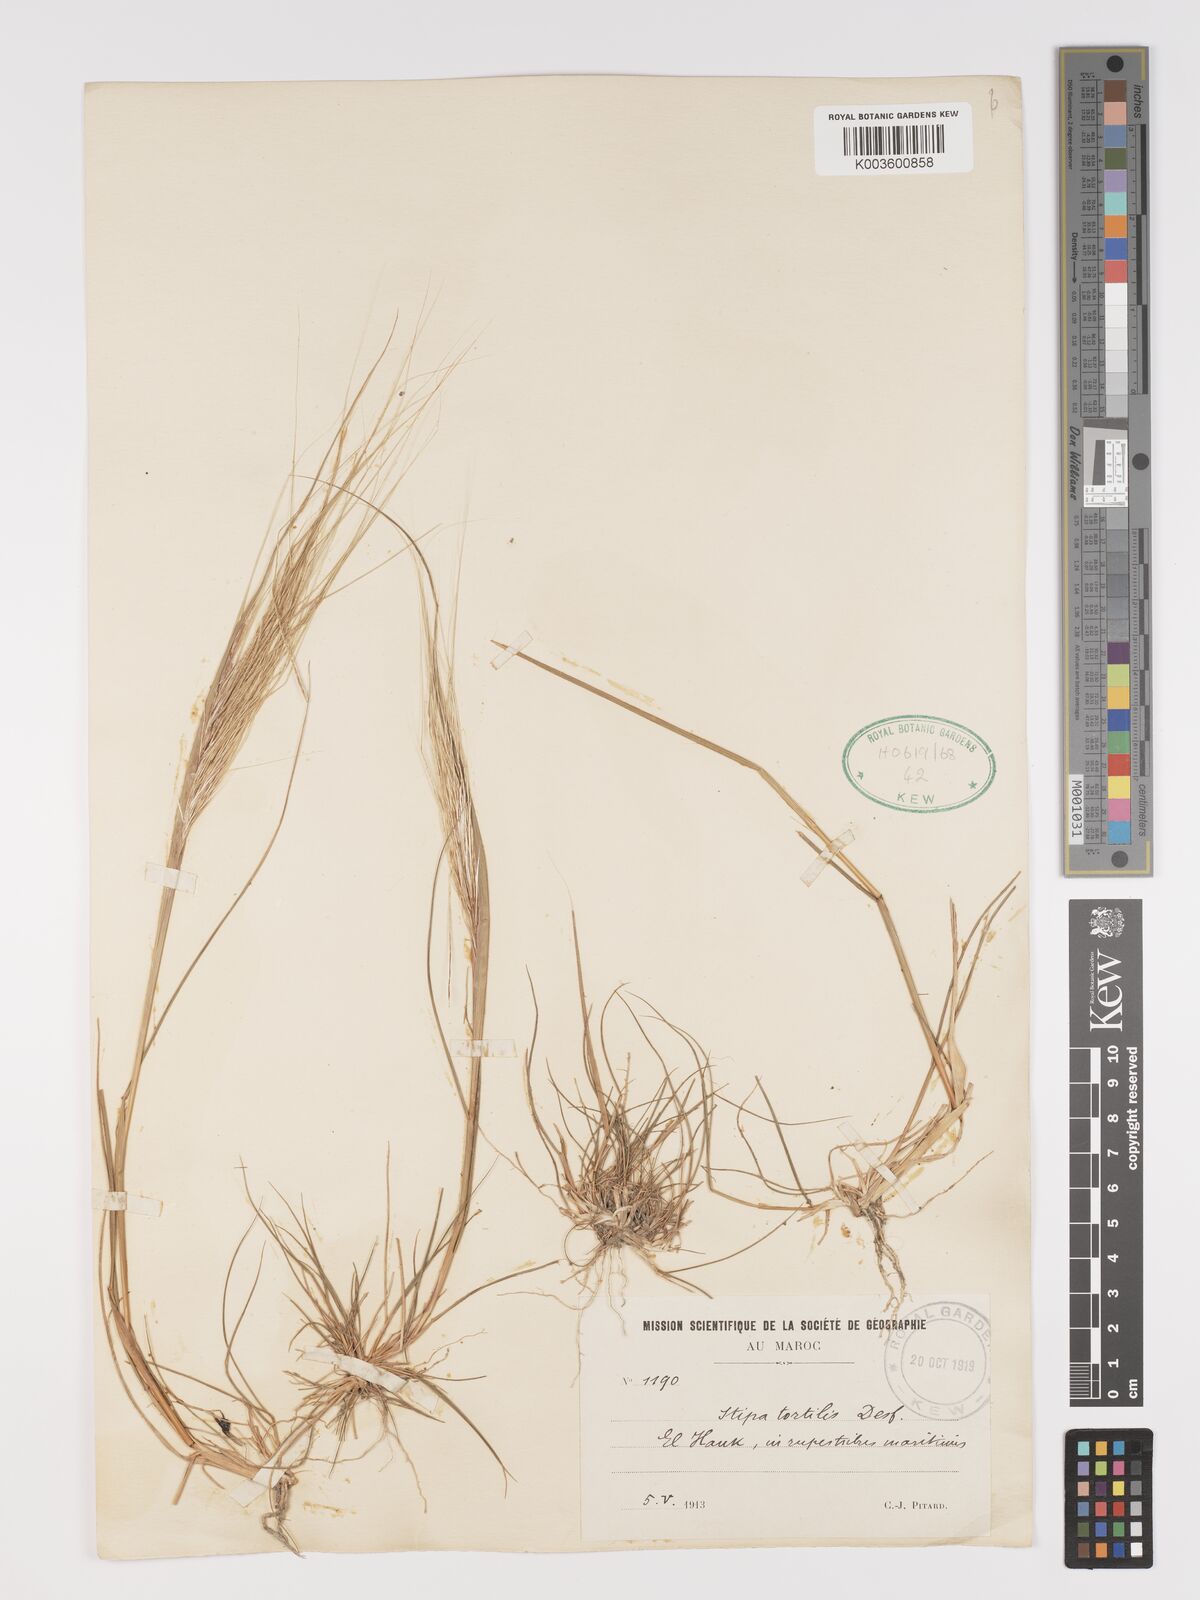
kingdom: Plantae
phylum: Tracheophyta
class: Liliopsida
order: Poales
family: Poaceae
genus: Stipellula
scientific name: Stipellula capensis
